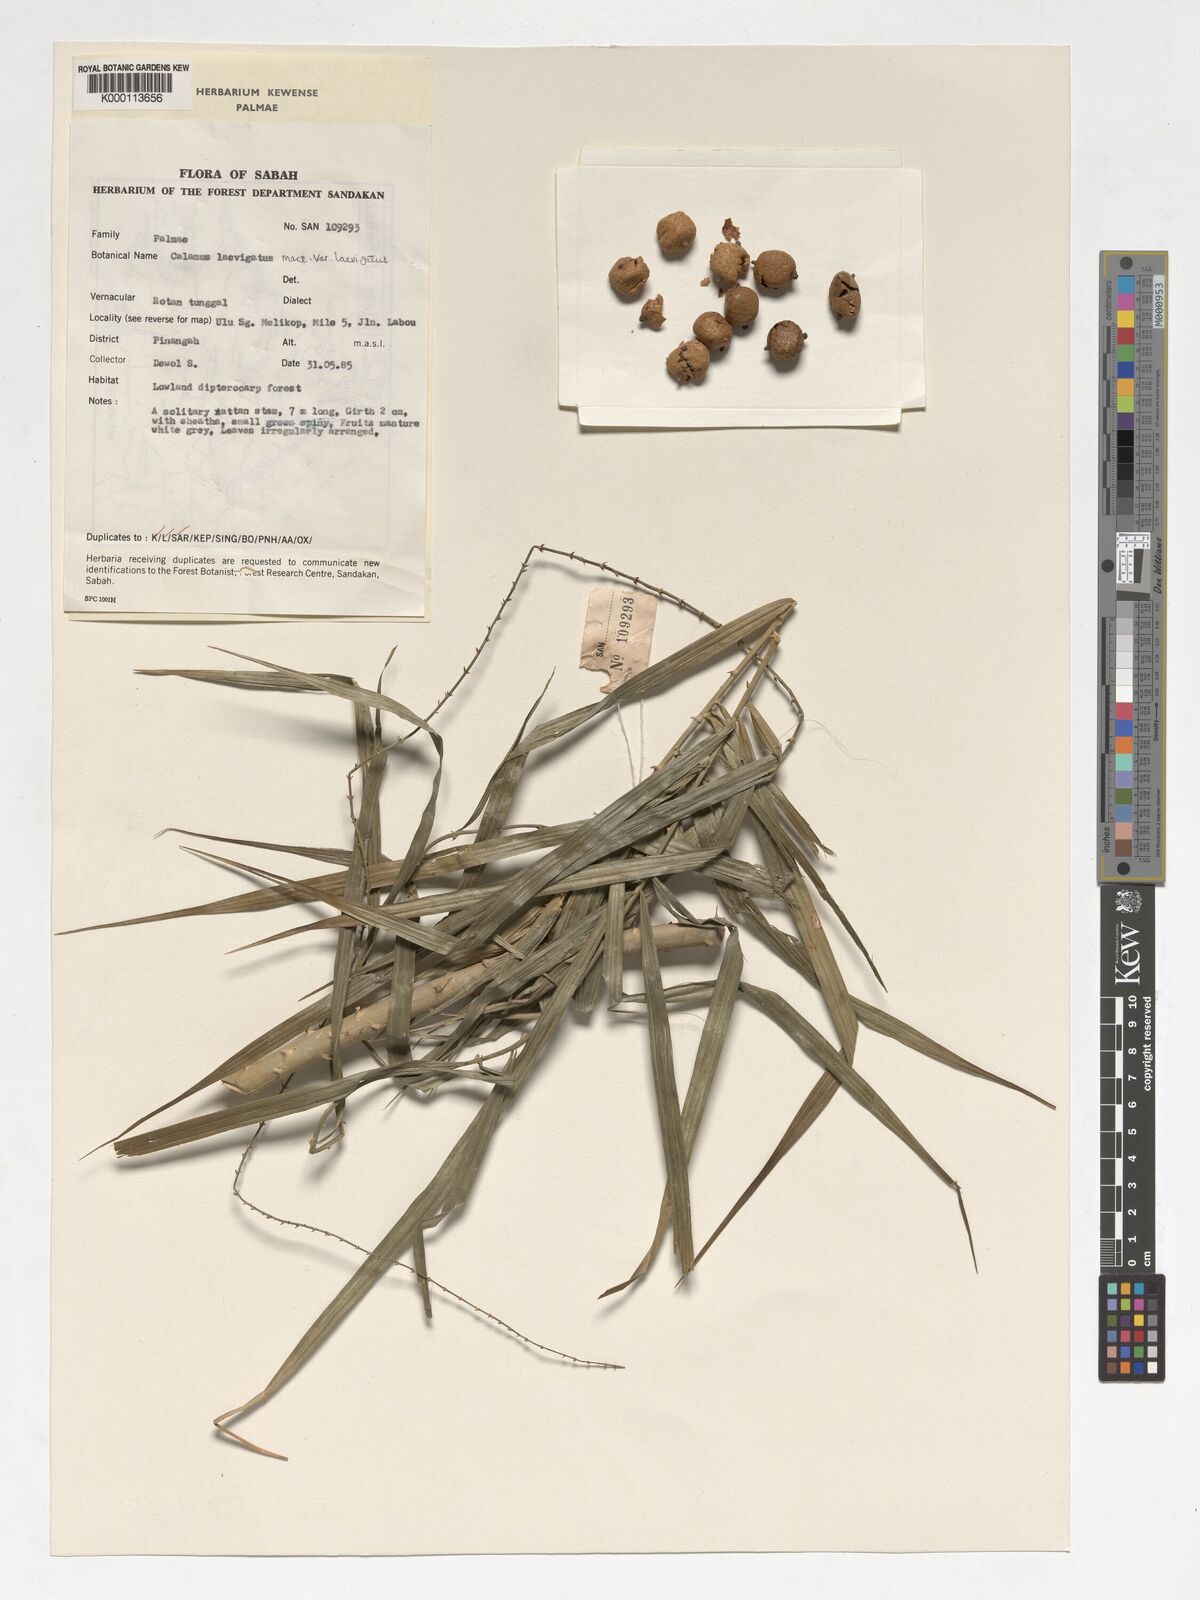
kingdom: Plantae
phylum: Tracheophyta
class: Liliopsida
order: Arecales
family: Arecaceae
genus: Calamus
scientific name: Calamus
